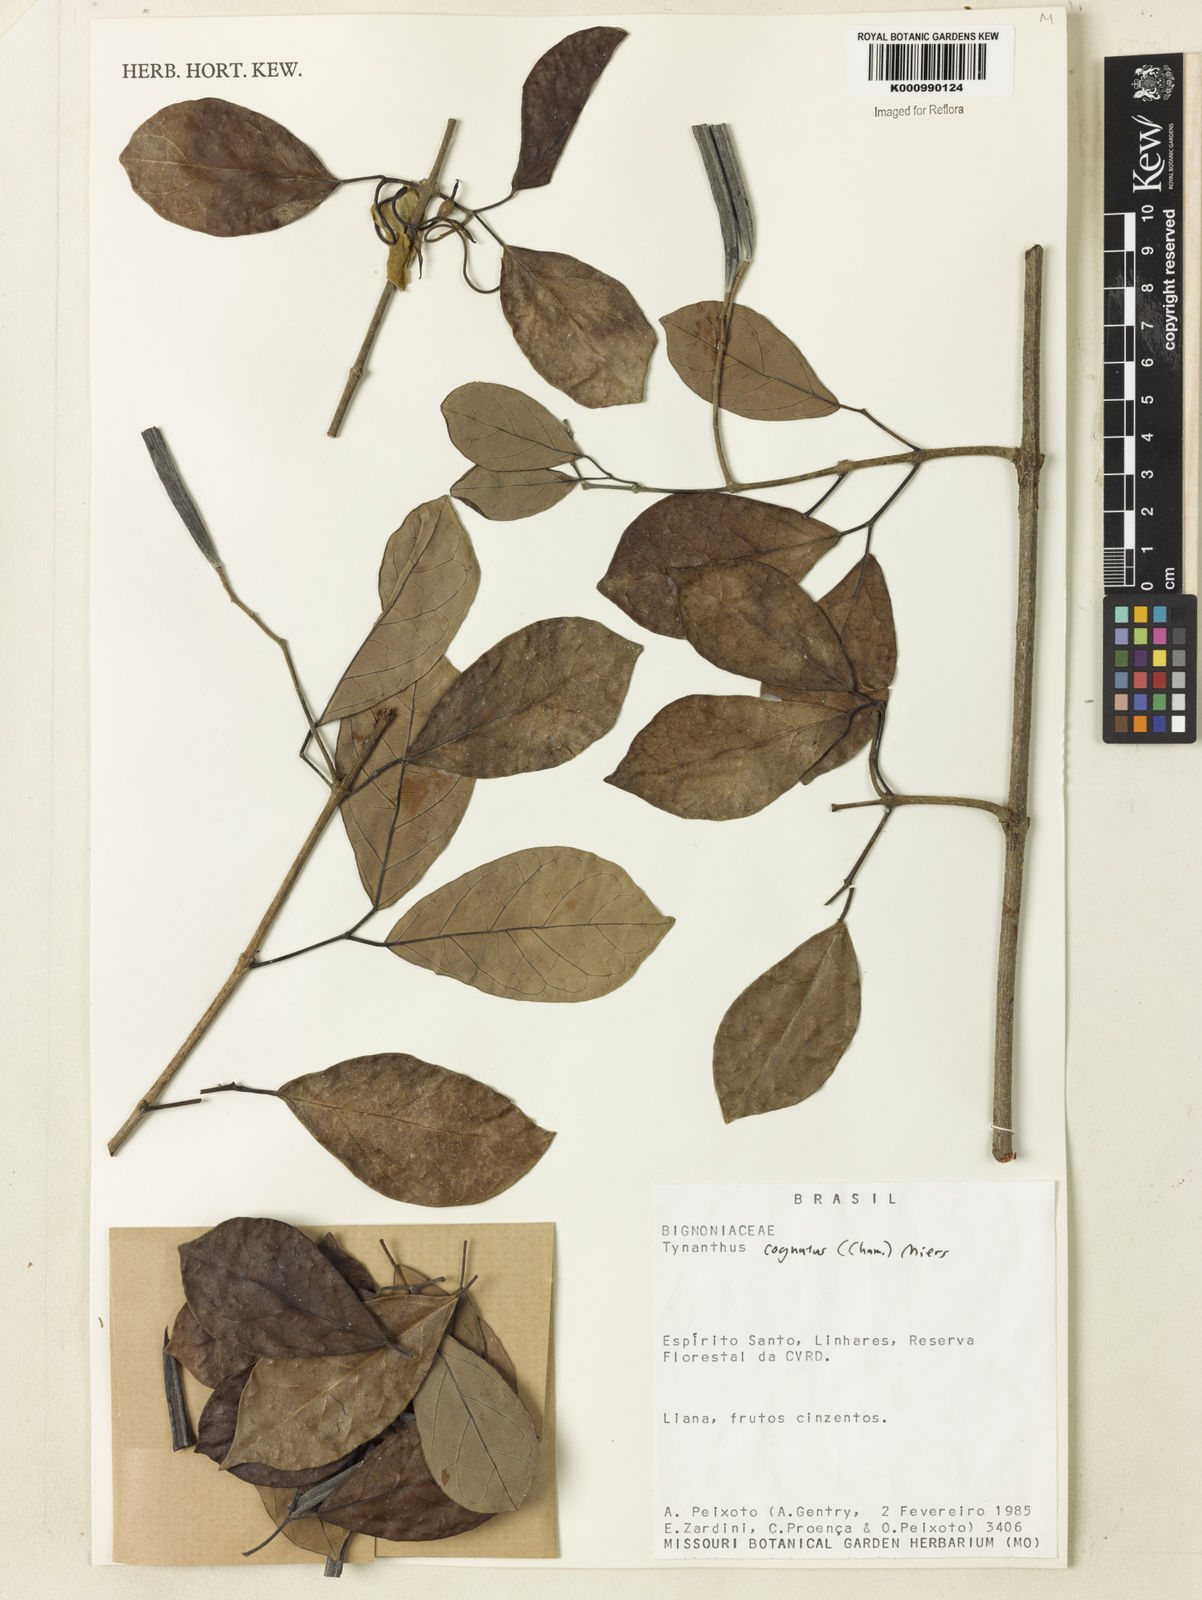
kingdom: Plantae
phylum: Tracheophyta
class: Magnoliopsida
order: Lamiales
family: Bignoniaceae
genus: Tynanthus
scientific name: Tynanthus cognatus
